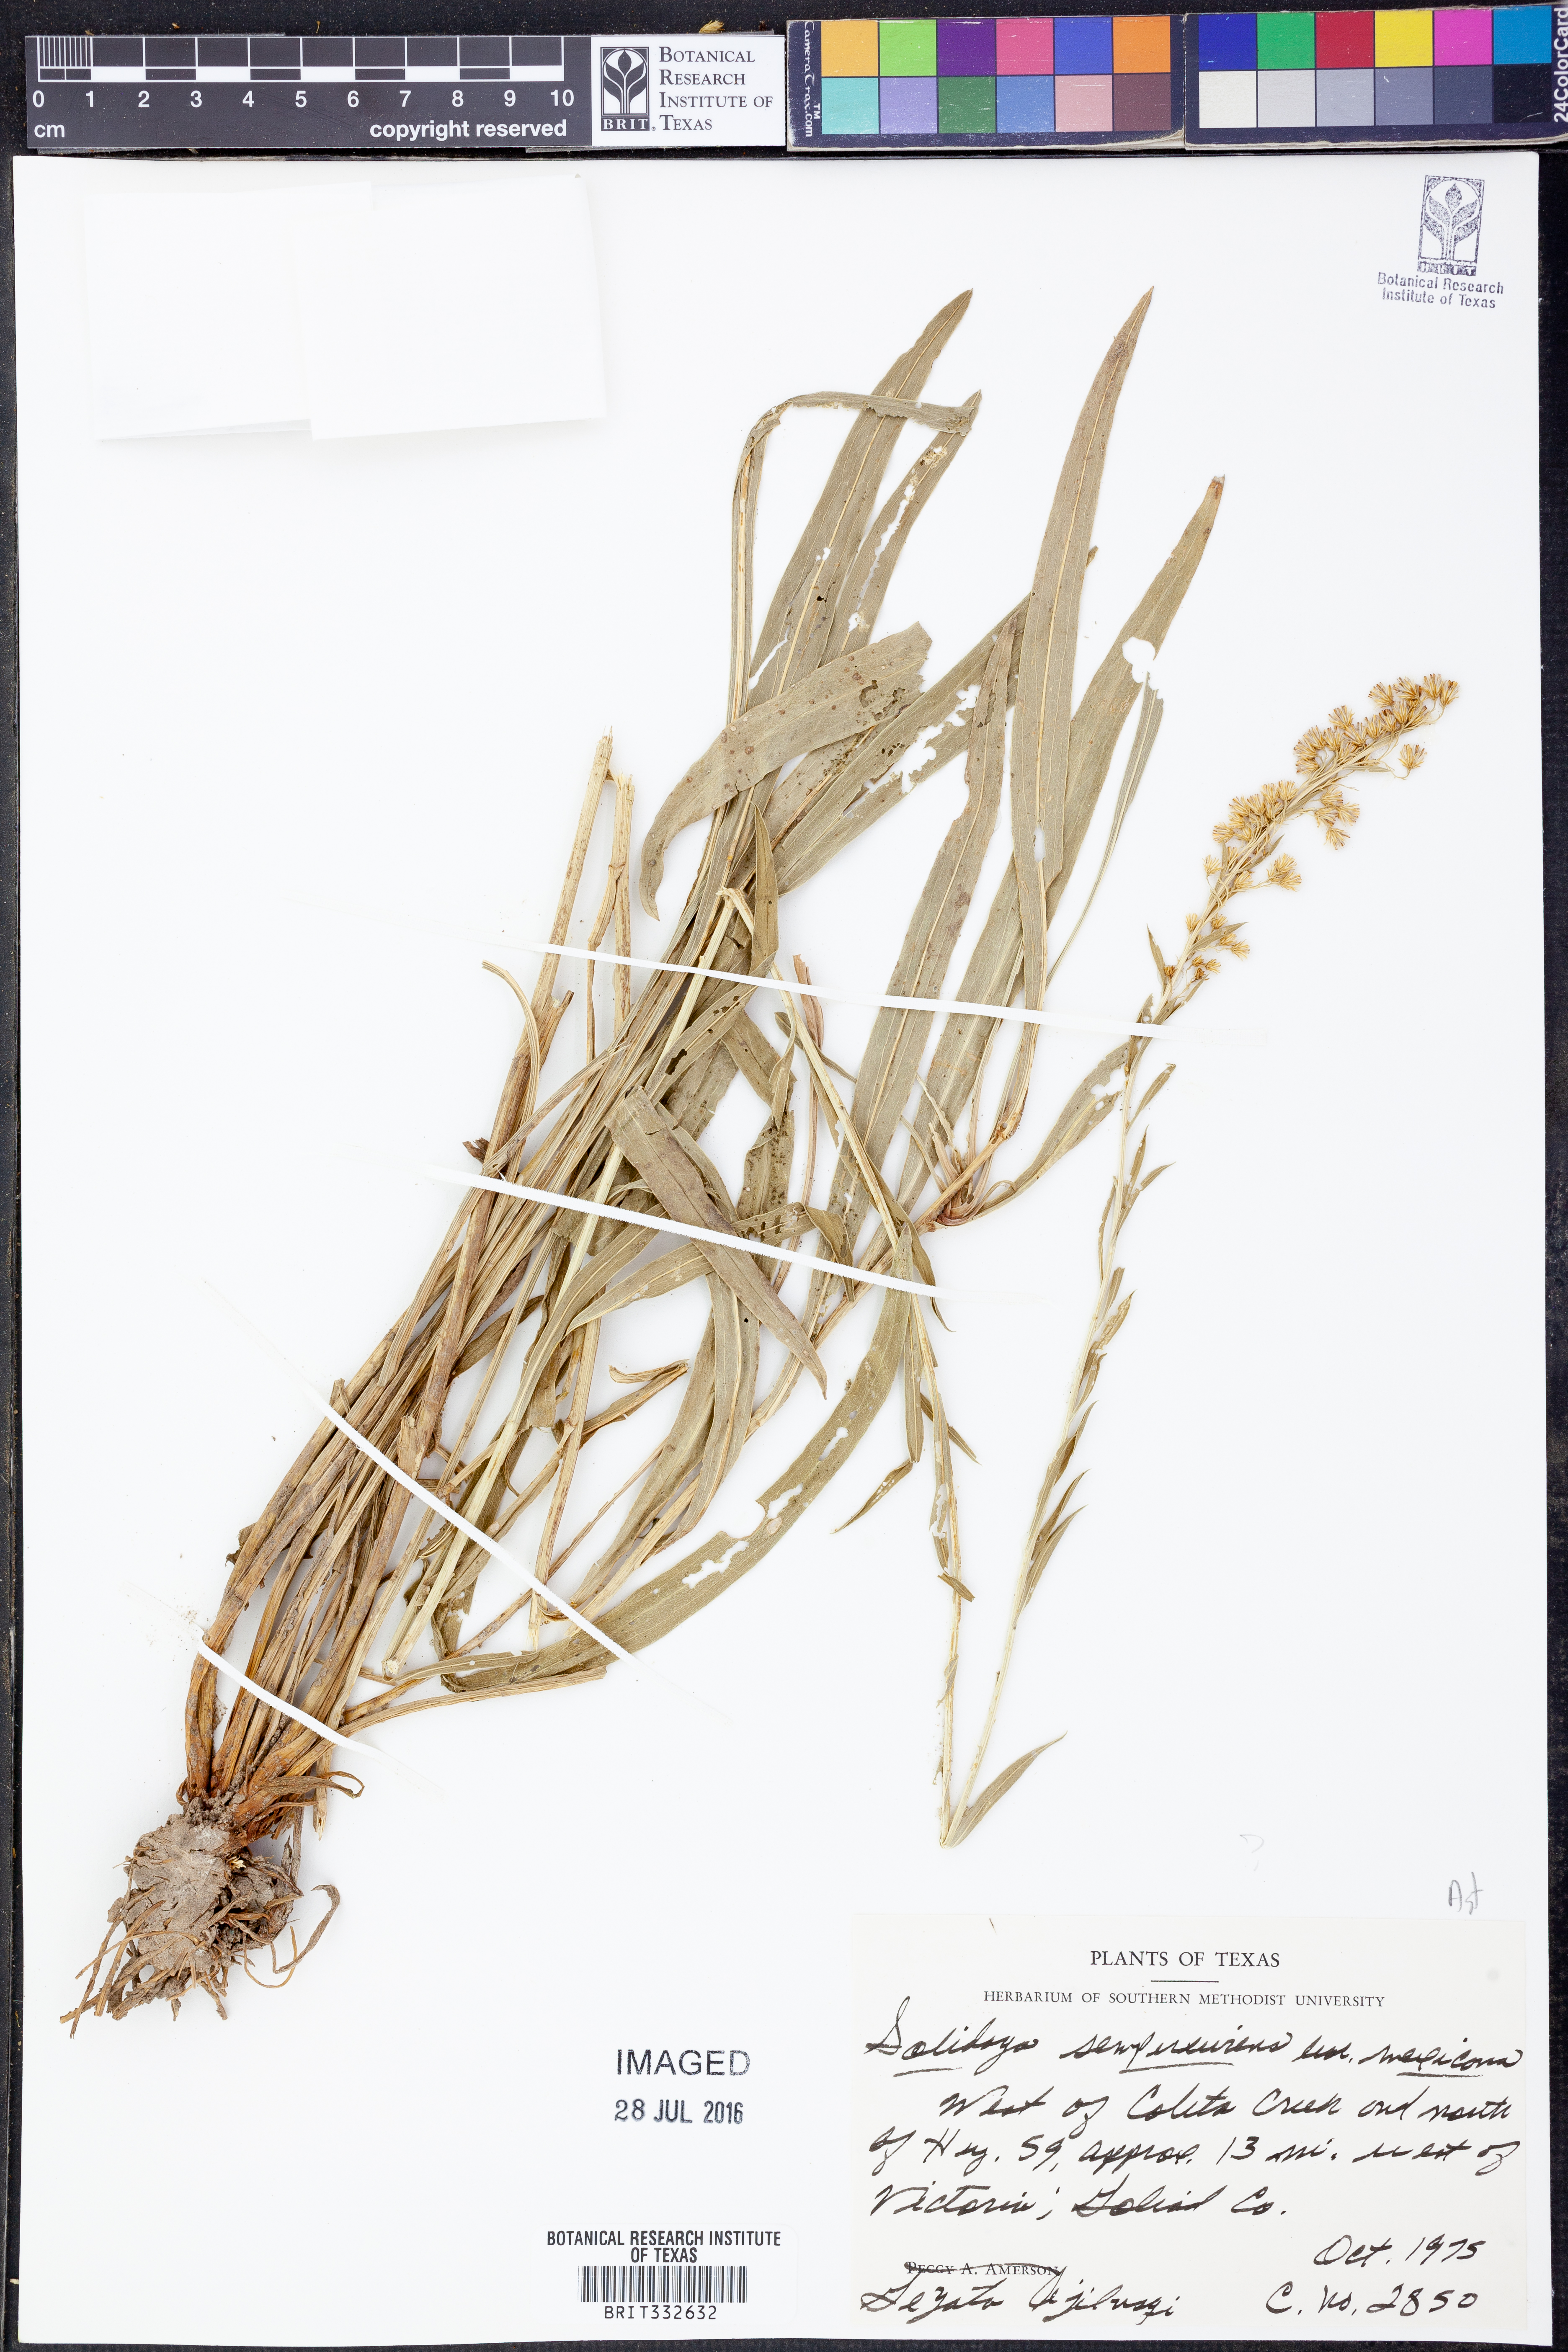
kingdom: Plantae
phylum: Tracheophyta
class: Magnoliopsida
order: Asterales
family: Asteraceae
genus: Solidago
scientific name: Solidago mexicana
